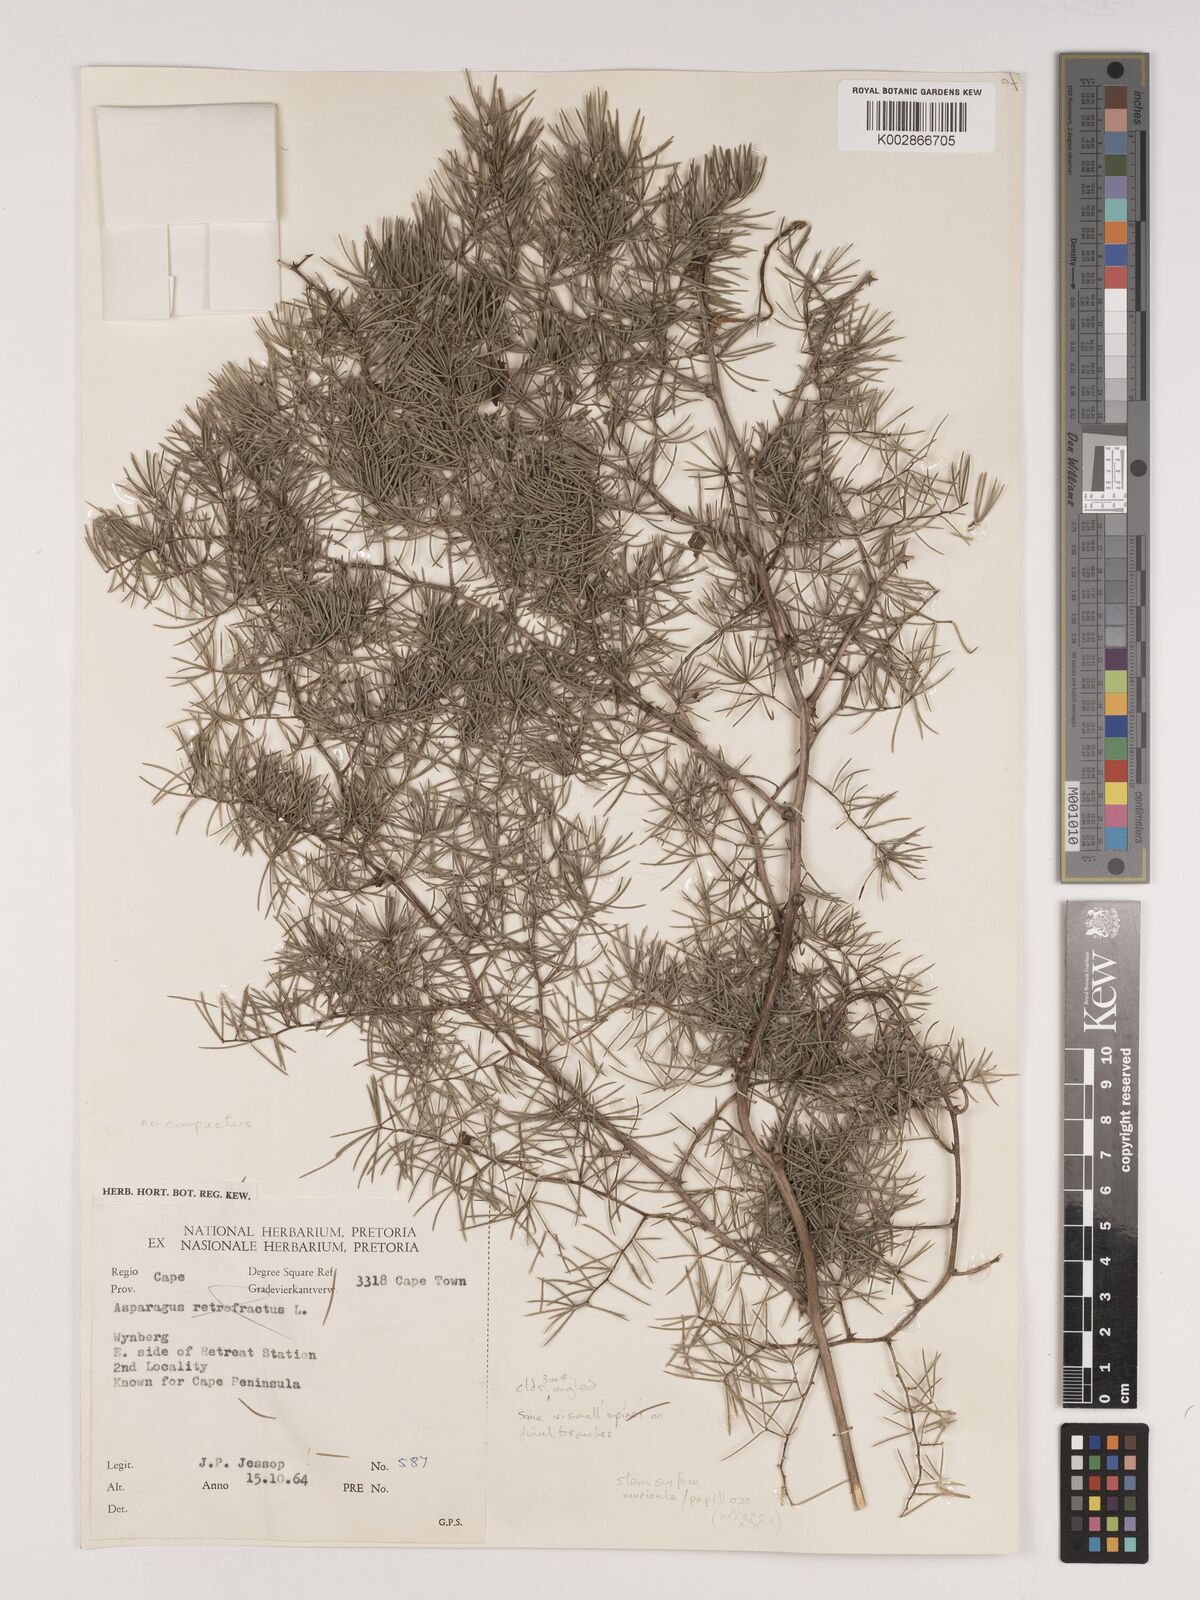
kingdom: Plantae
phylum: Tracheophyta
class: Liliopsida
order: Asparagales
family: Asparagaceae
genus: Asparagus
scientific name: Asparagus lignosus
